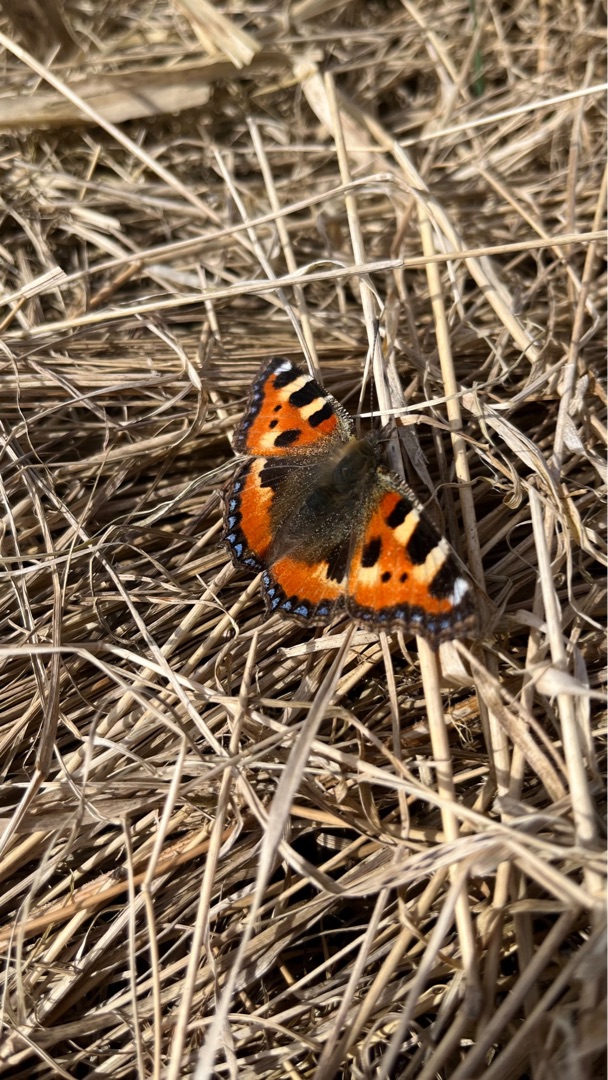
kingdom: Animalia
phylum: Arthropoda
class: Insecta
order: Lepidoptera
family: Nymphalidae
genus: Aglais
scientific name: Aglais urticae
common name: Nældens takvinge
